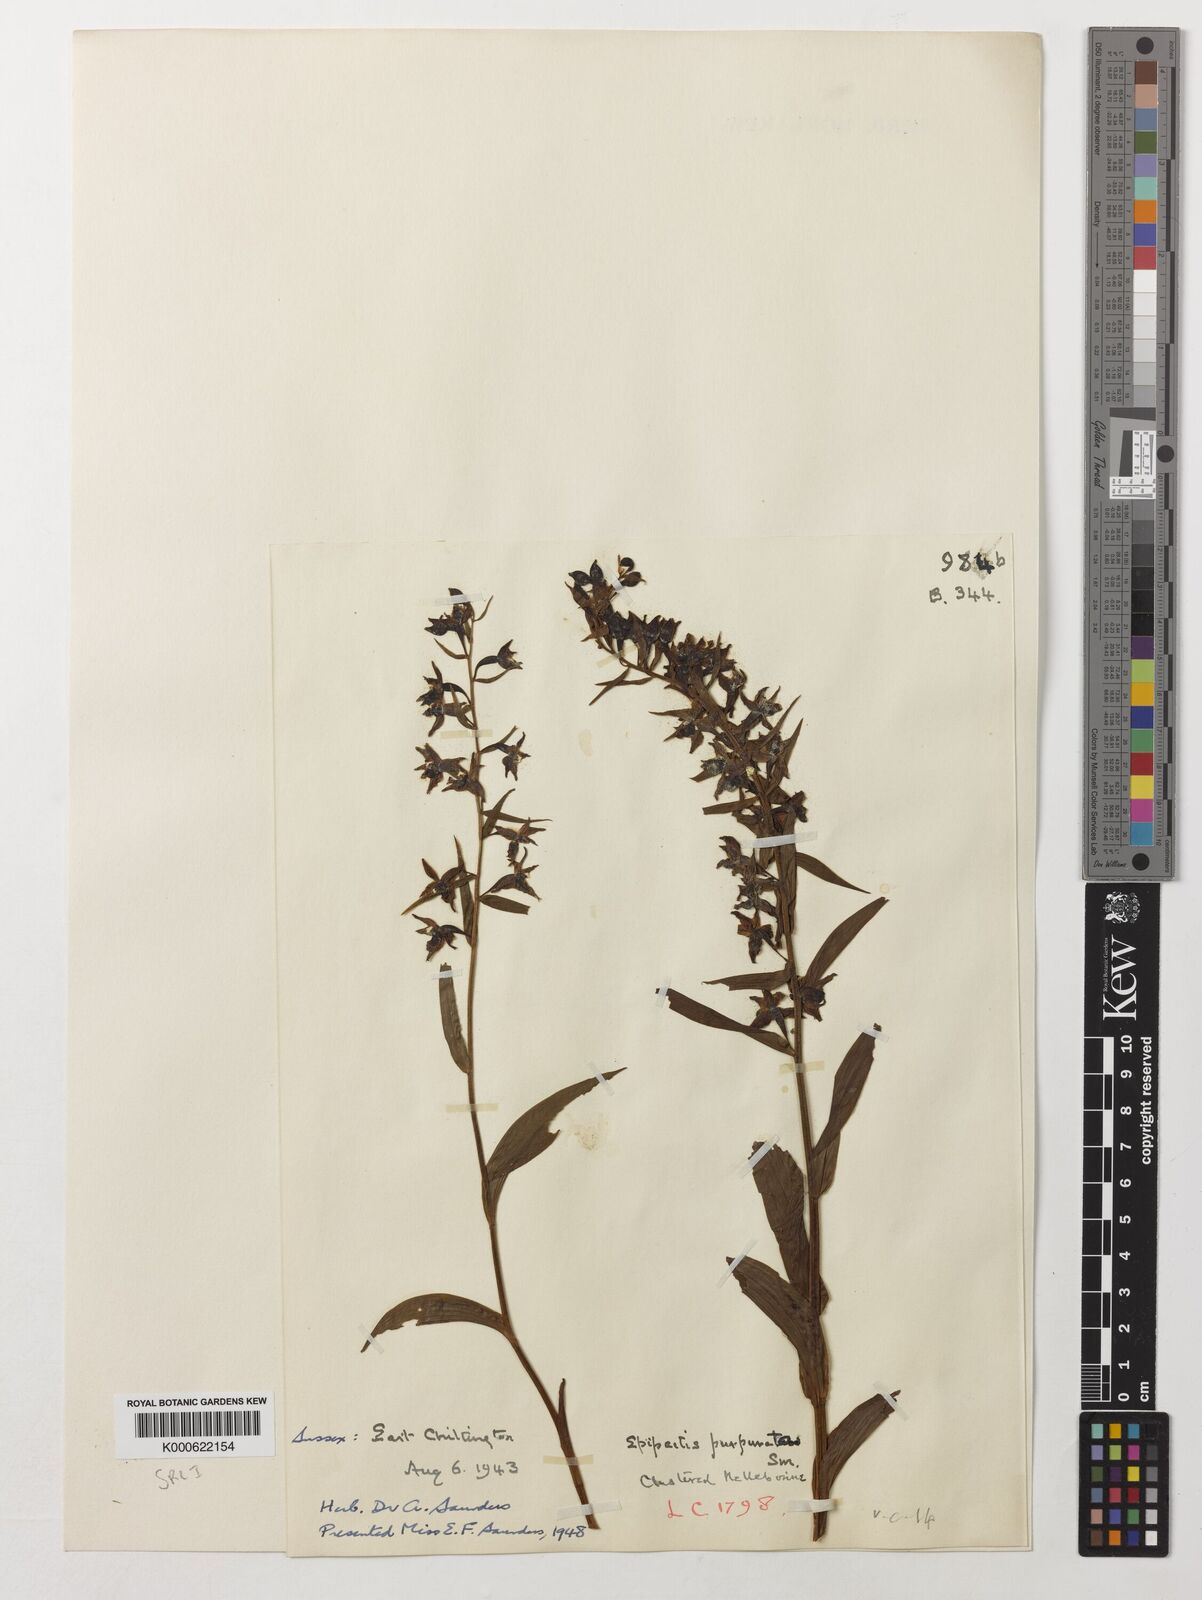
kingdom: Plantae
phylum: Tracheophyta
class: Liliopsida
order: Asparagales
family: Orchidaceae
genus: Epipactis
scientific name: Epipactis purpurata
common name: Violet helleborine
